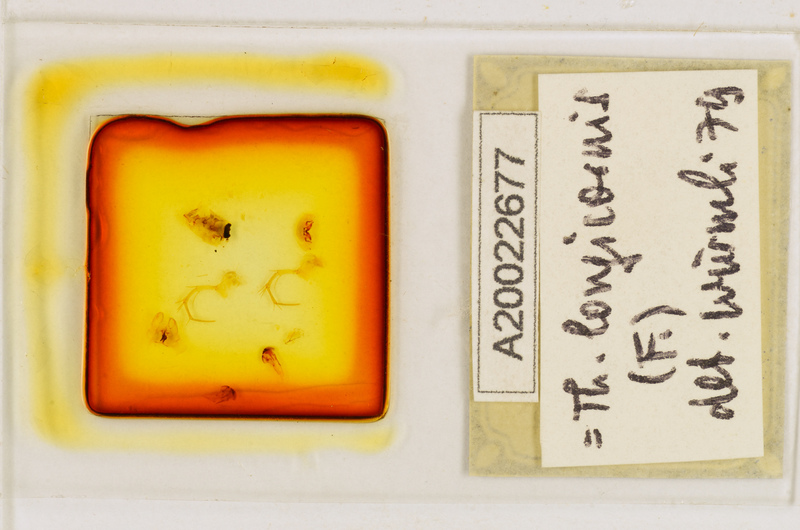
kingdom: Animalia
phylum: Arthropoda
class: Chilopoda
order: Scutigeromorpha
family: Scutigeridae
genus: Thereuopoda
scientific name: Thereuopoda longicornis
